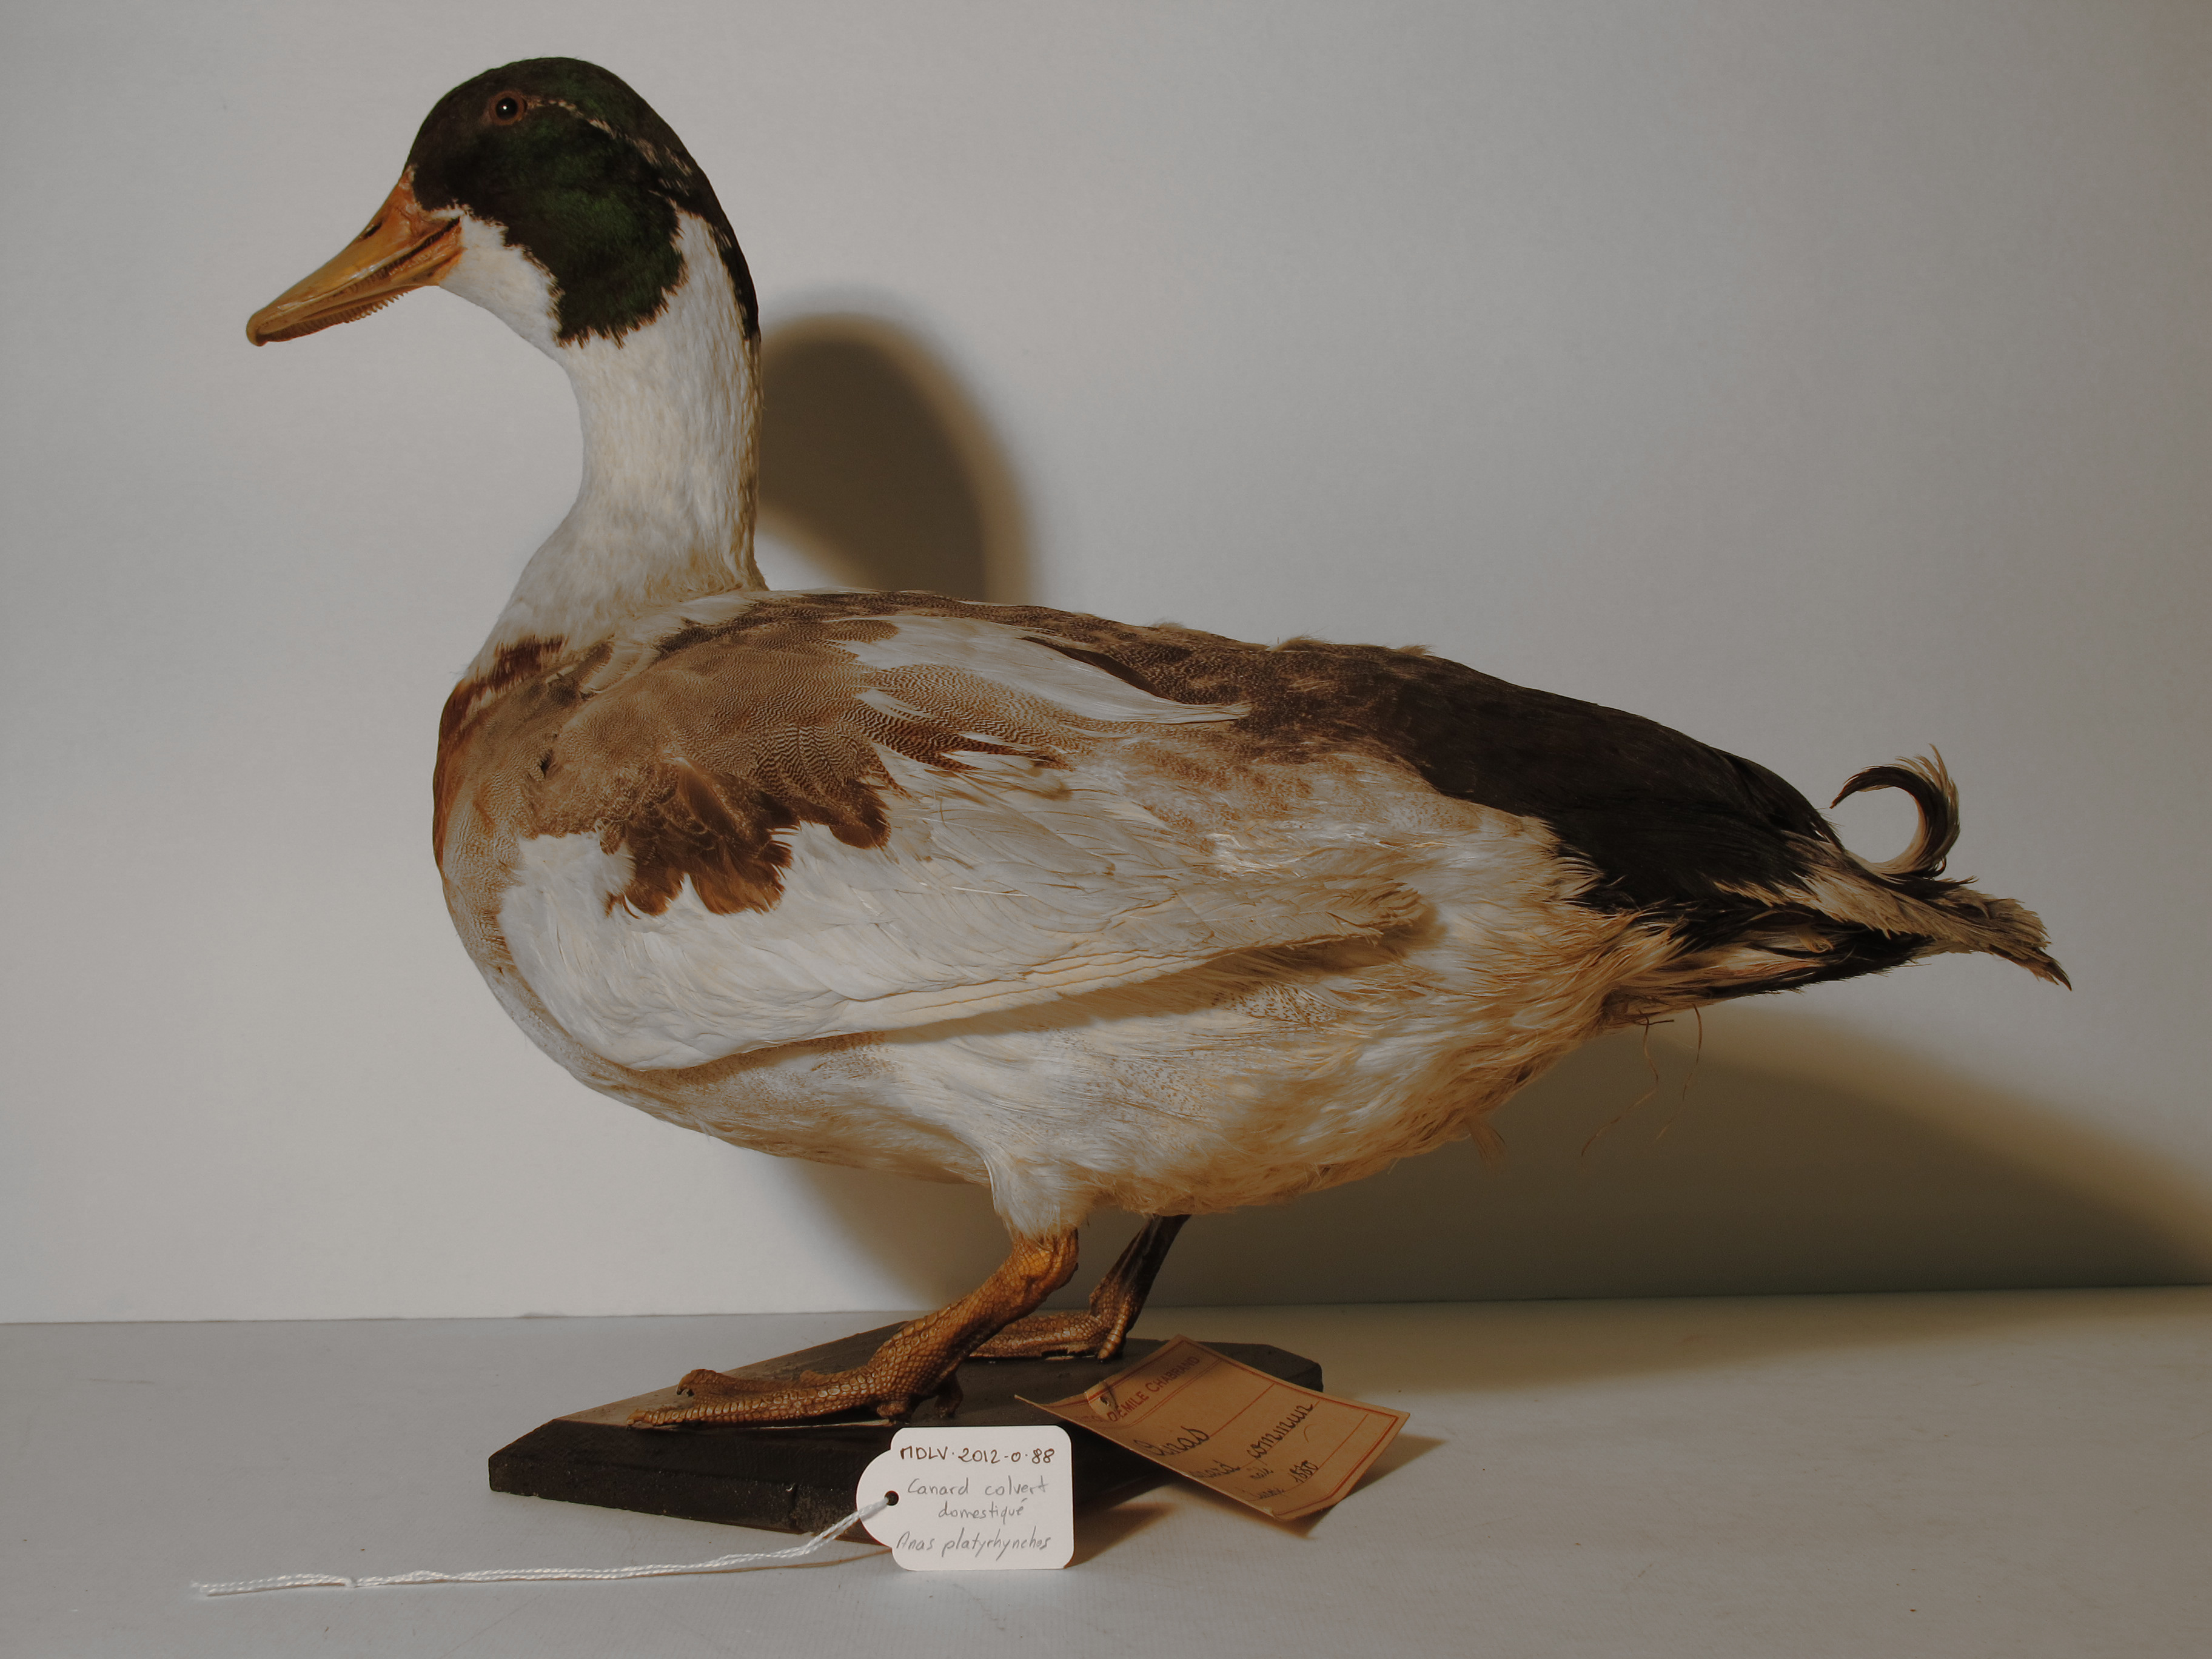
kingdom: Animalia
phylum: Chordata
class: Aves
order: Anseriformes
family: Anatidae
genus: Anas
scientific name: Anas platyrhynchos
